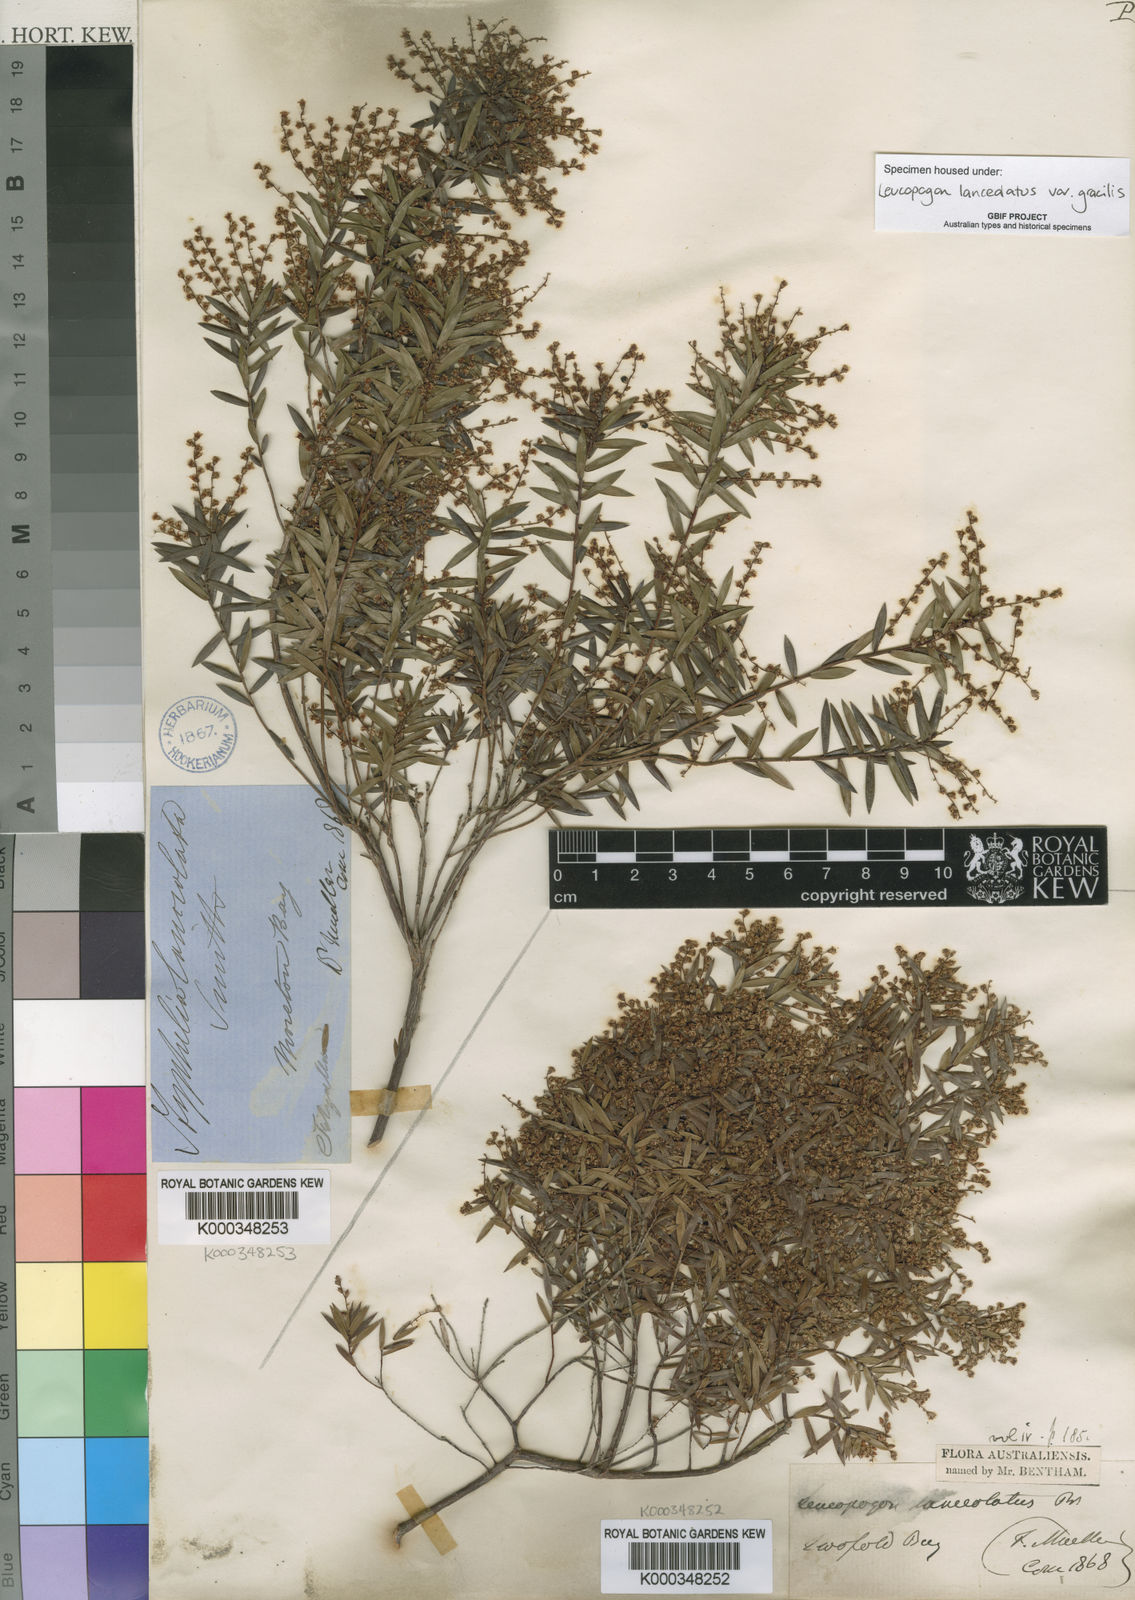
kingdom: Plantae
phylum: Tracheophyta
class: Magnoliopsida
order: Ericales
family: Ericaceae
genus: Leucopogon
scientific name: Leucopogon pimeleoides
